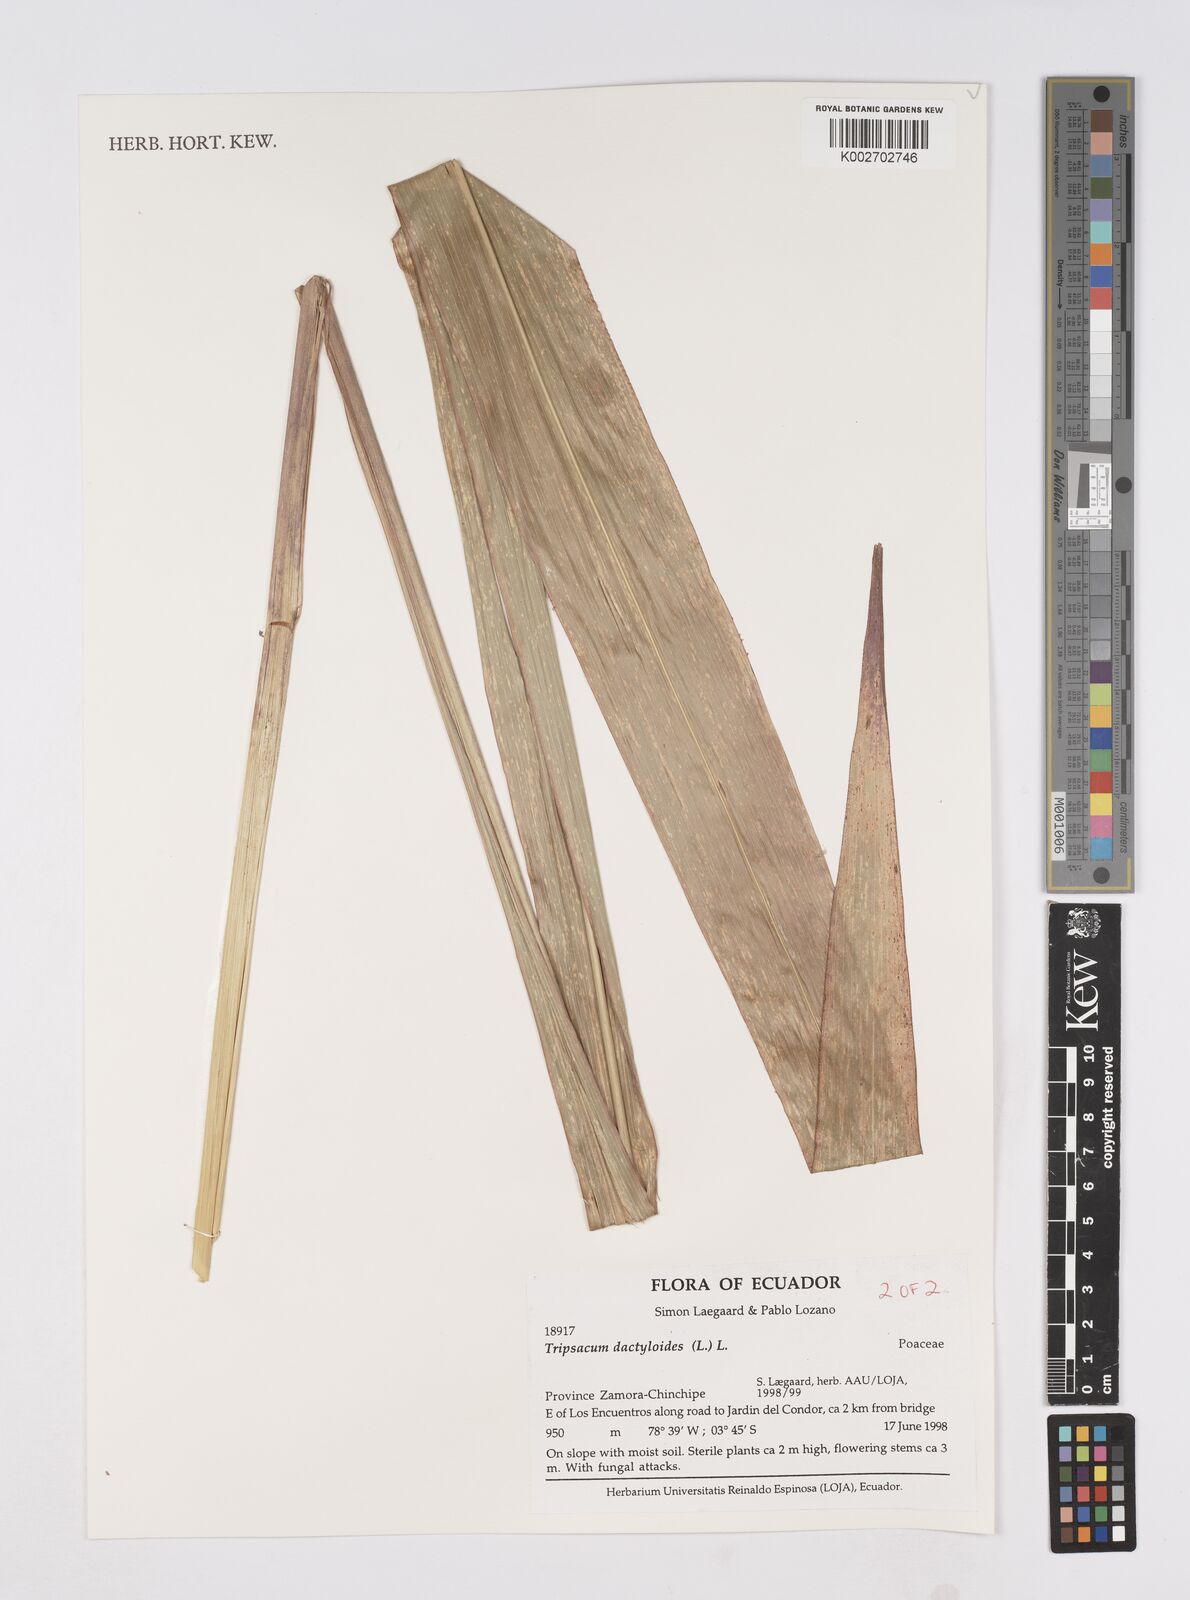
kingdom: Plantae
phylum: Tracheophyta
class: Liliopsida
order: Poales
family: Poaceae
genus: Tripsacum
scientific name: Tripsacum andersonii
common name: Guatemalan grass
